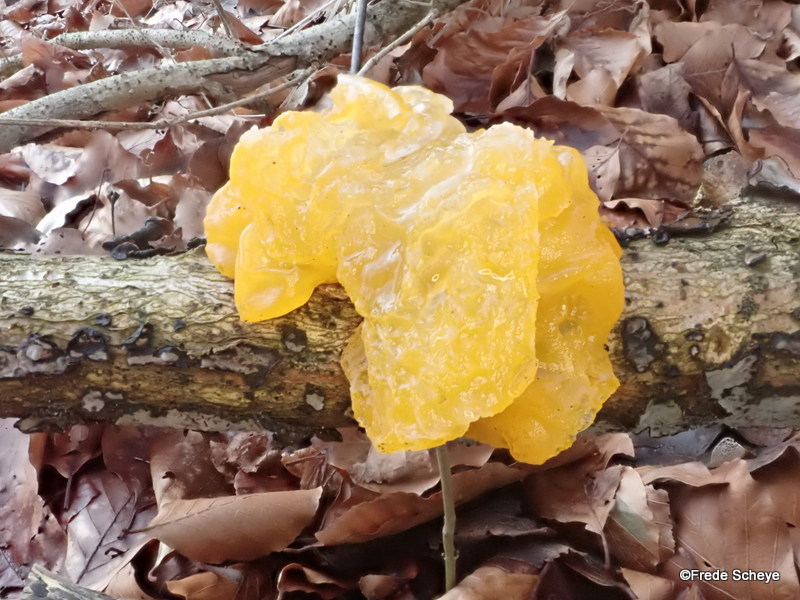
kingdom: Fungi
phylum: Basidiomycota
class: Tremellomycetes
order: Tremellales
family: Tremellaceae
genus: Tremella
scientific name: Tremella mesenterica
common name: gul bævresvamp
